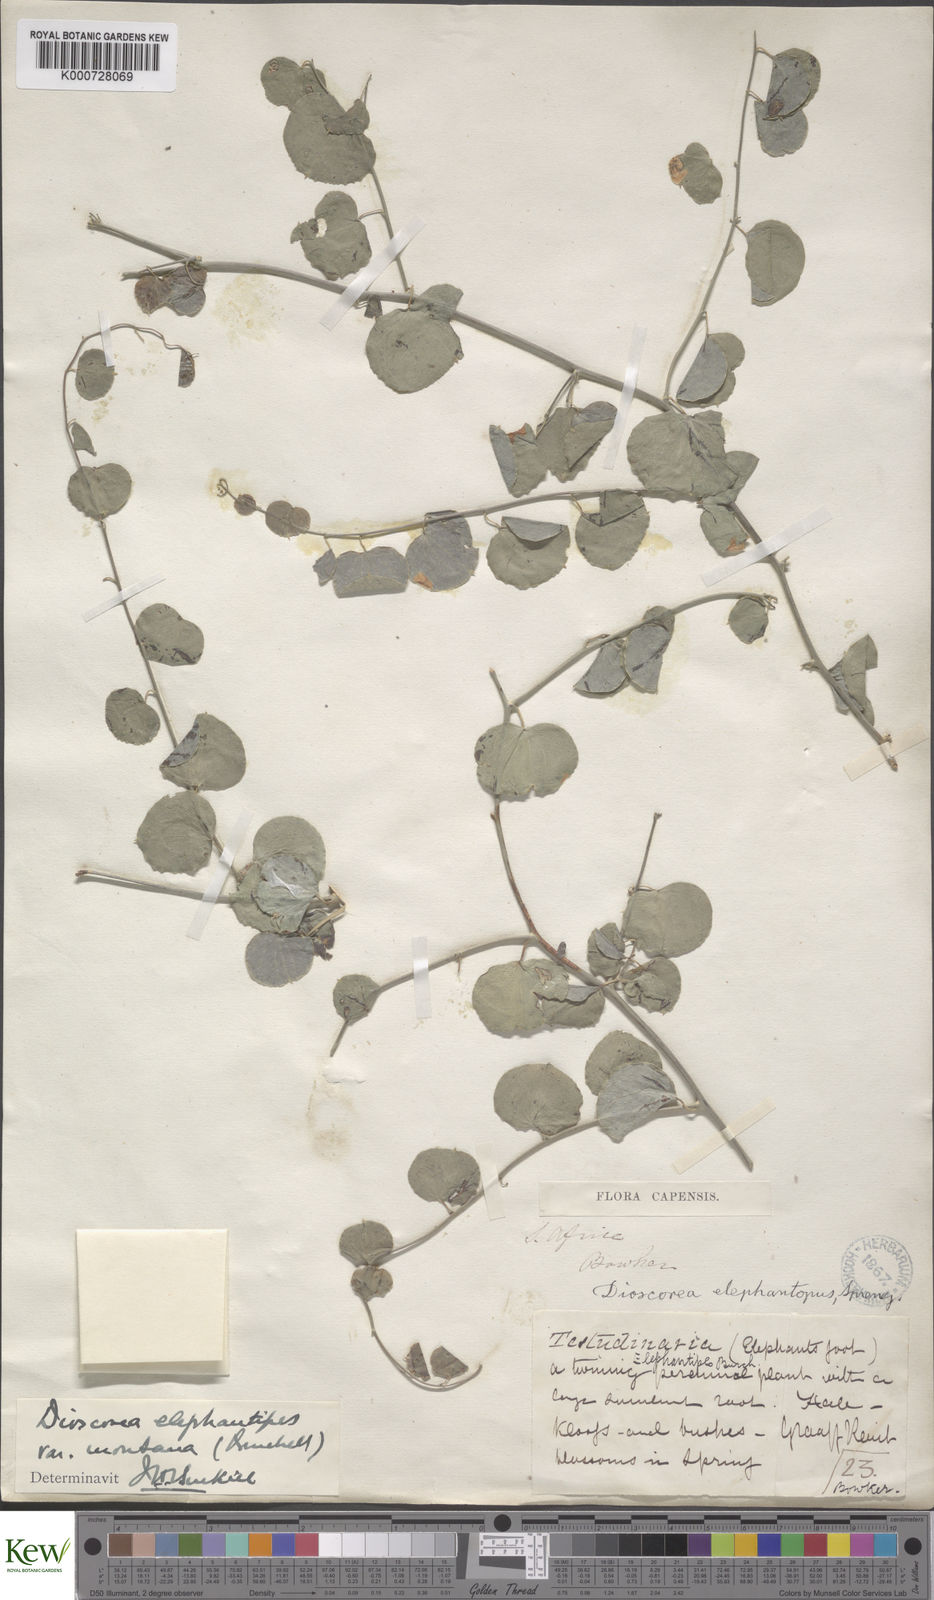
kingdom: Plantae
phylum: Tracheophyta
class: Liliopsida
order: Dioscoreales
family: Dioscoreaceae
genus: Dioscorea
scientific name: Dioscorea
